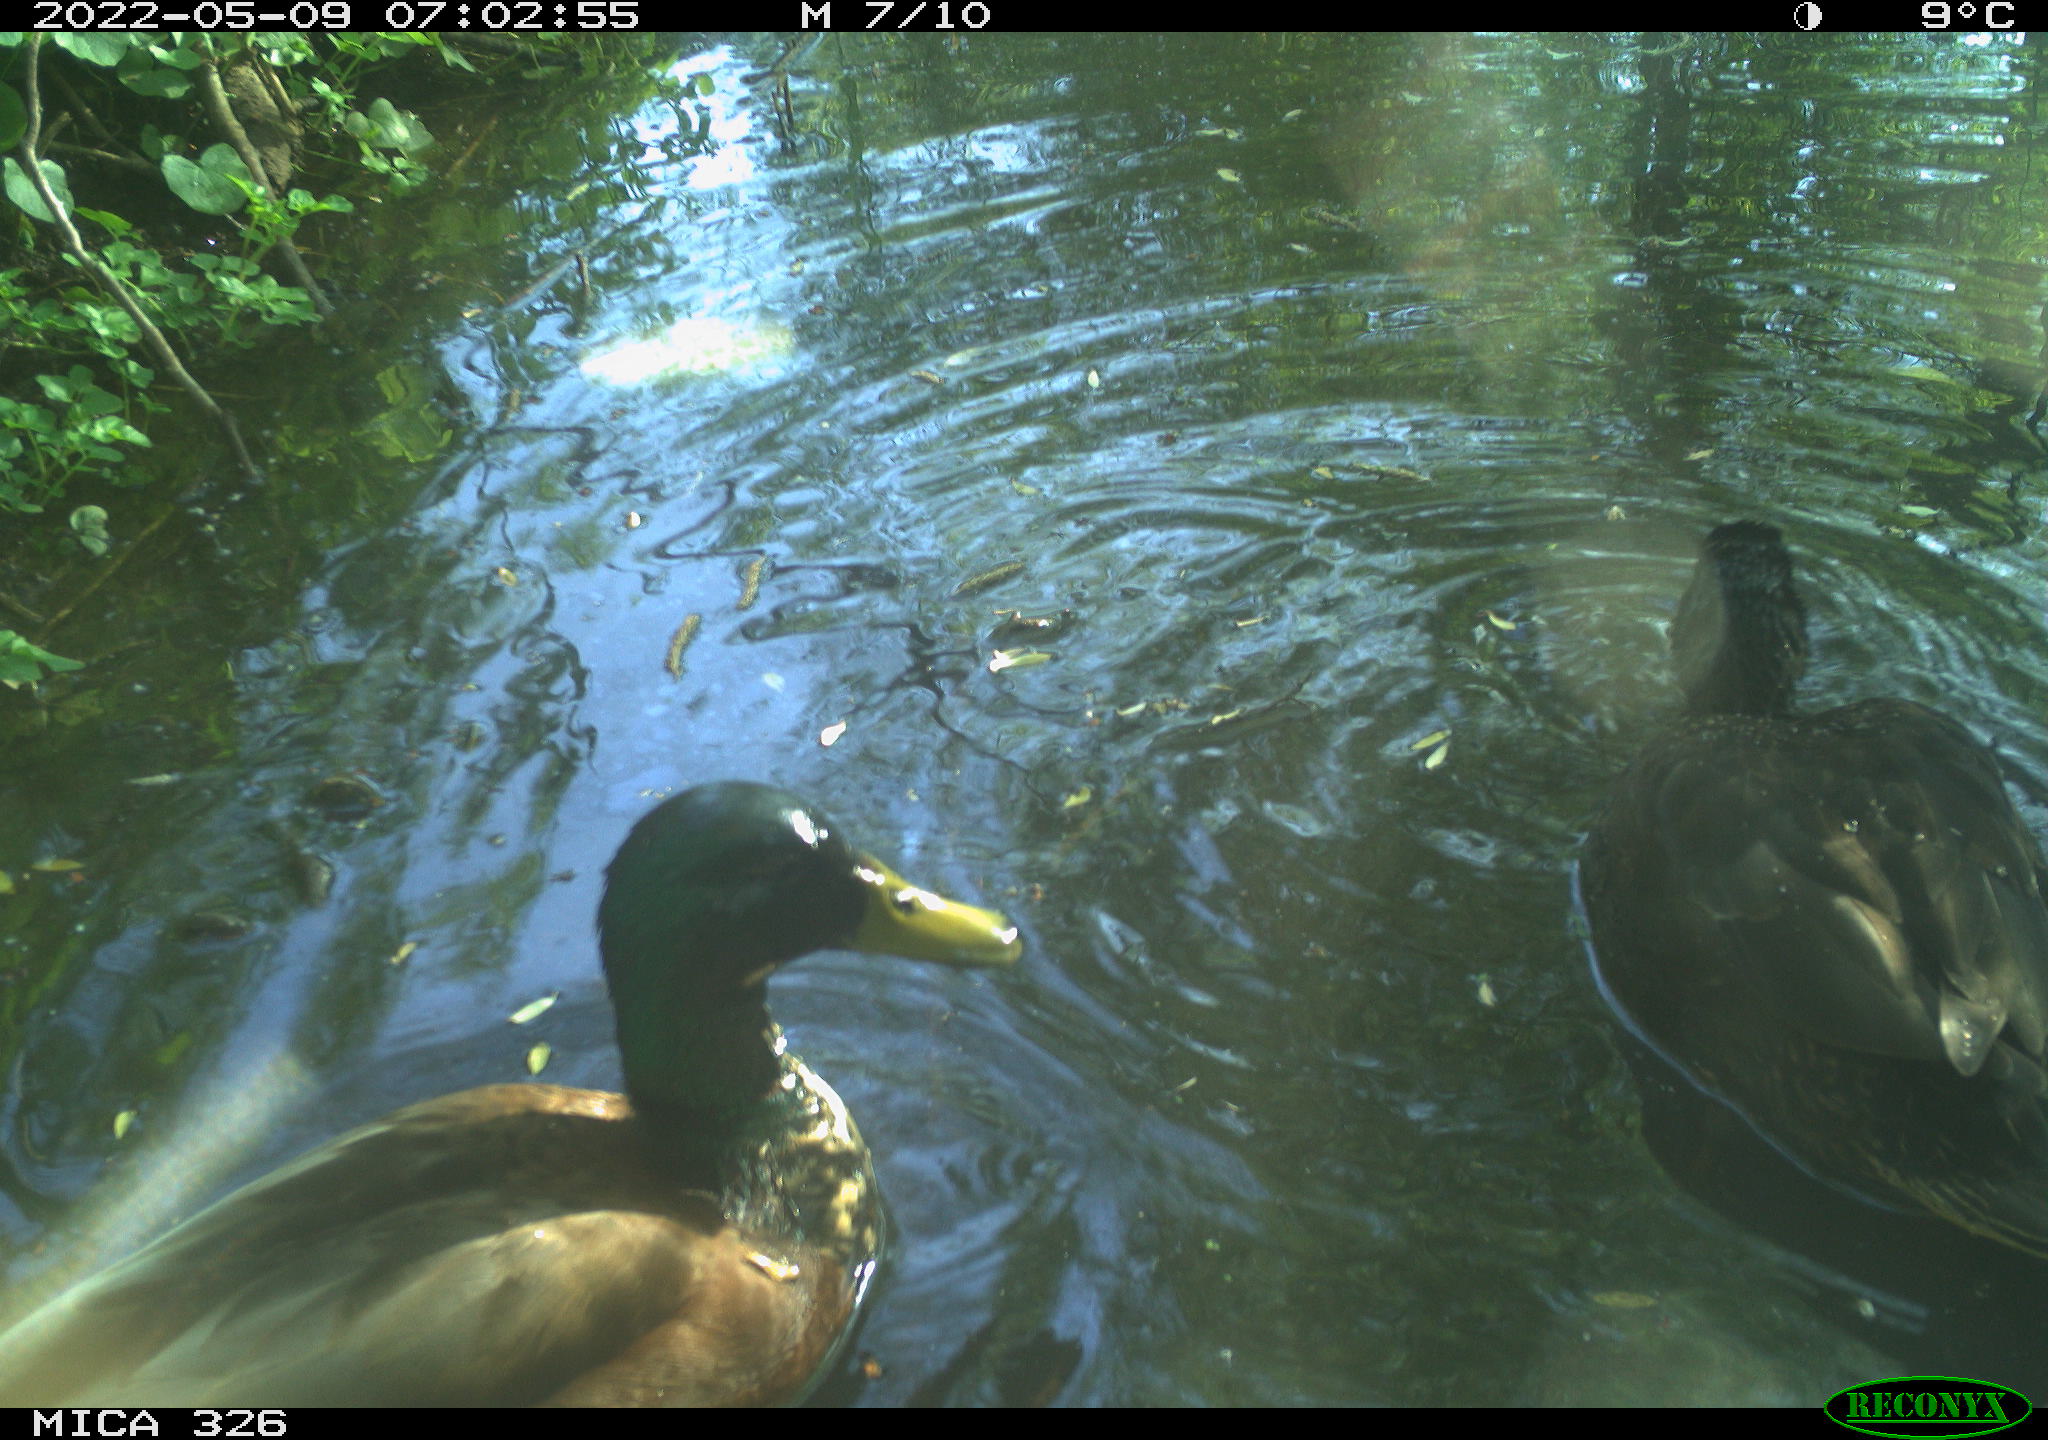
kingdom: Animalia
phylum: Chordata
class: Aves
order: Anseriformes
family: Anatidae
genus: Anas
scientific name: Anas platyrhynchos
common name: Mallard
